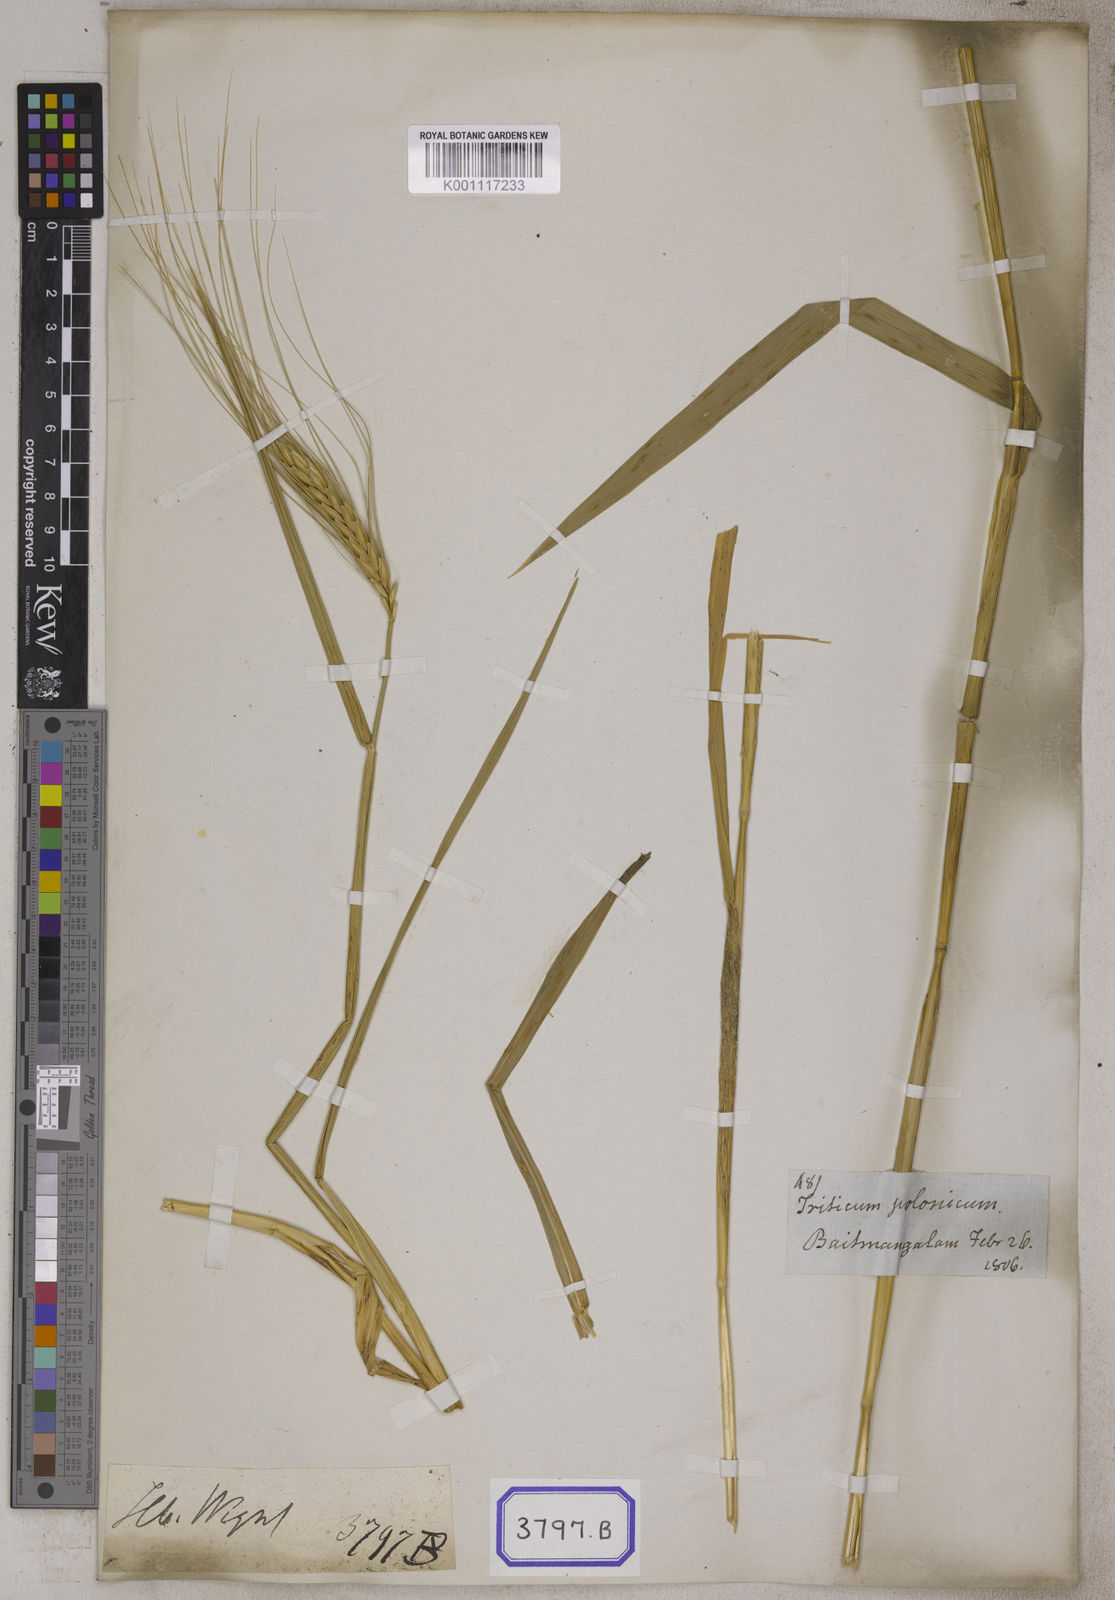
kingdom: Plantae
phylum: Tracheophyta
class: Liliopsida
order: Poales
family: Poaceae
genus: Triticum
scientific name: Triticum turgidum
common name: Rivet wheat
